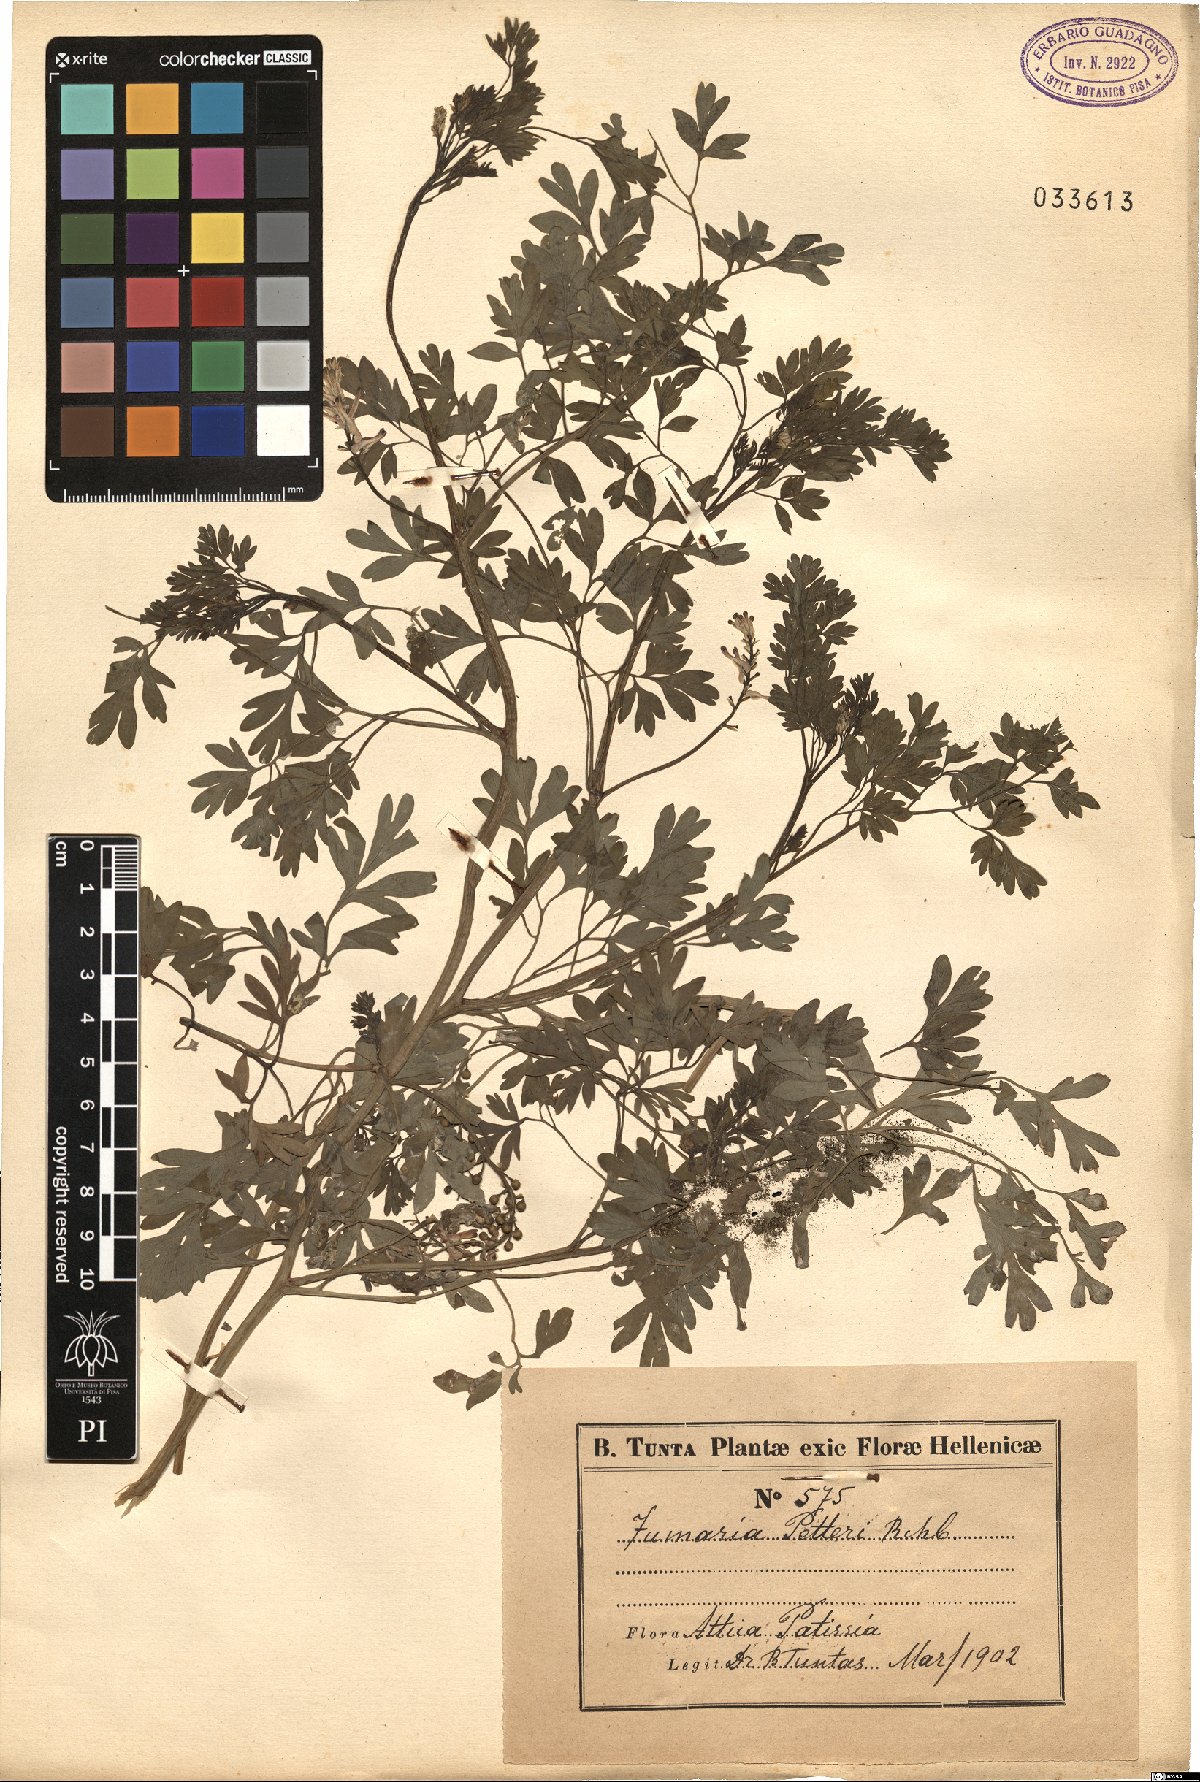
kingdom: Plantae
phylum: Tracheophyta
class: Magnoliopsida
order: Ranunculales
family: Papaveraceae
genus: Fumaria
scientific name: Fumaria petteri
